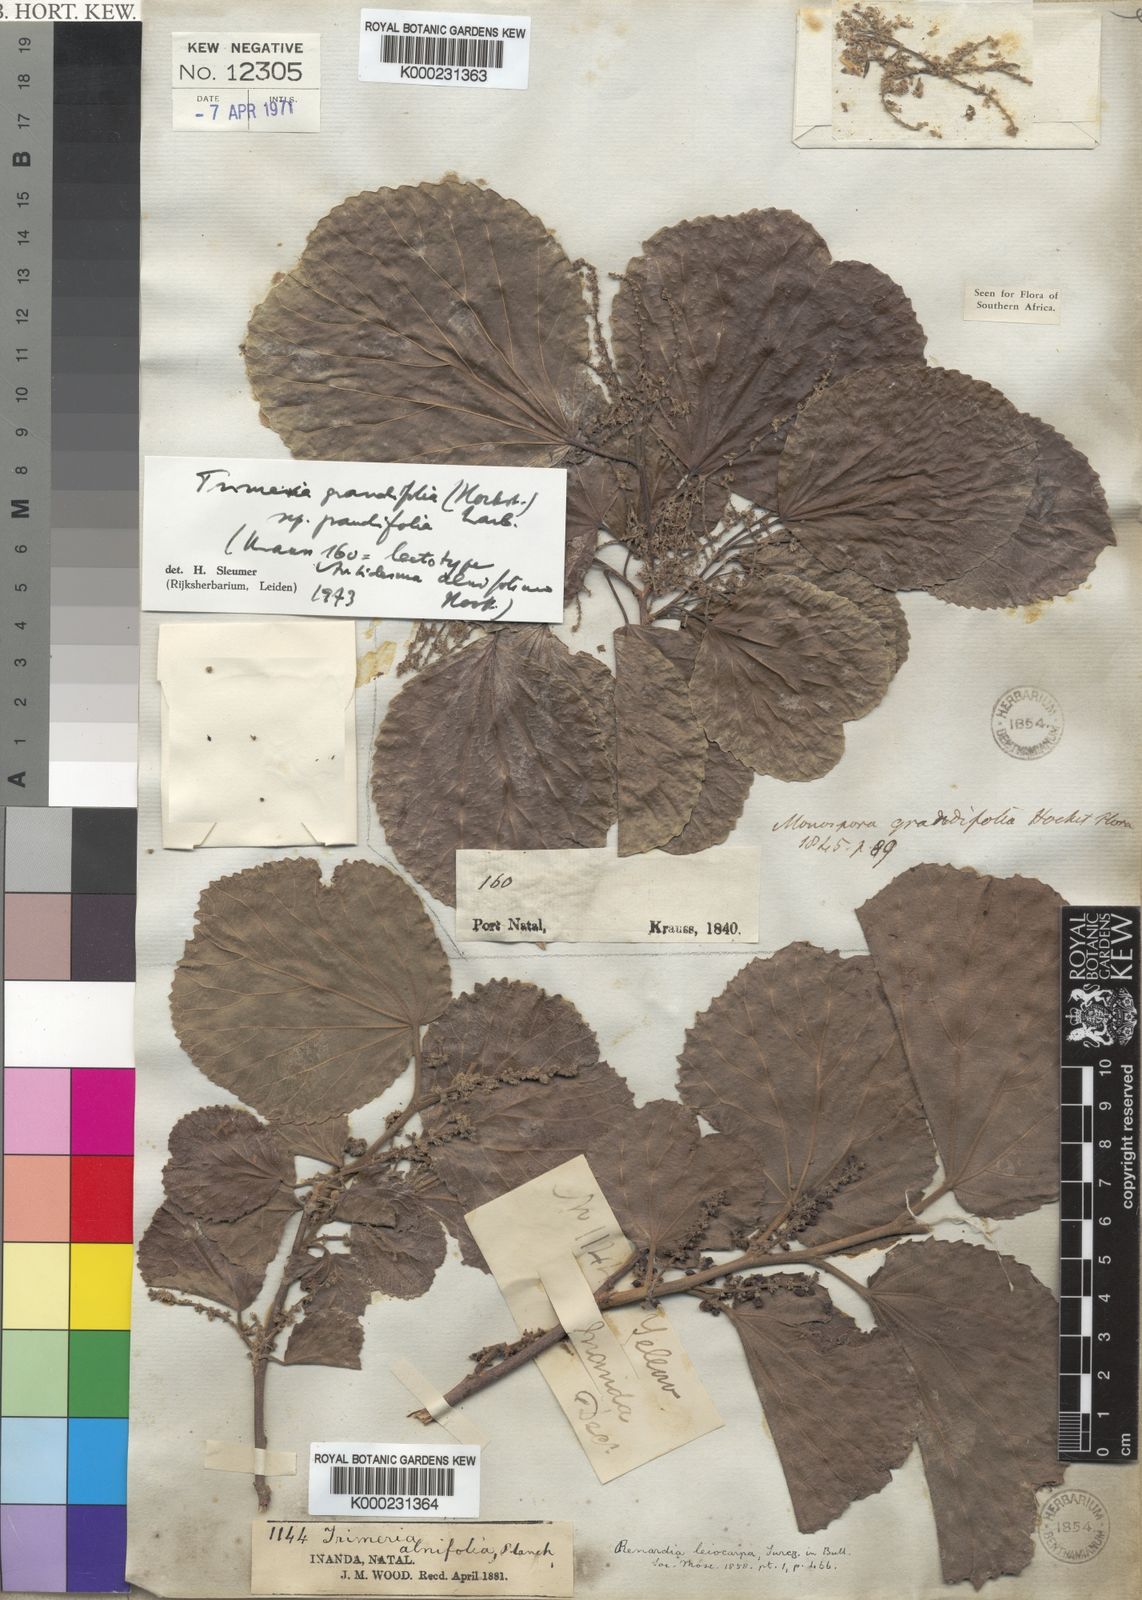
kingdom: Plantae
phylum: Tracheophyta
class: Magnoliopsida
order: Malpighiales
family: Salicaceae
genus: Trimeria
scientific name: Trimeria grandifolia
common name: Wild mulberry
